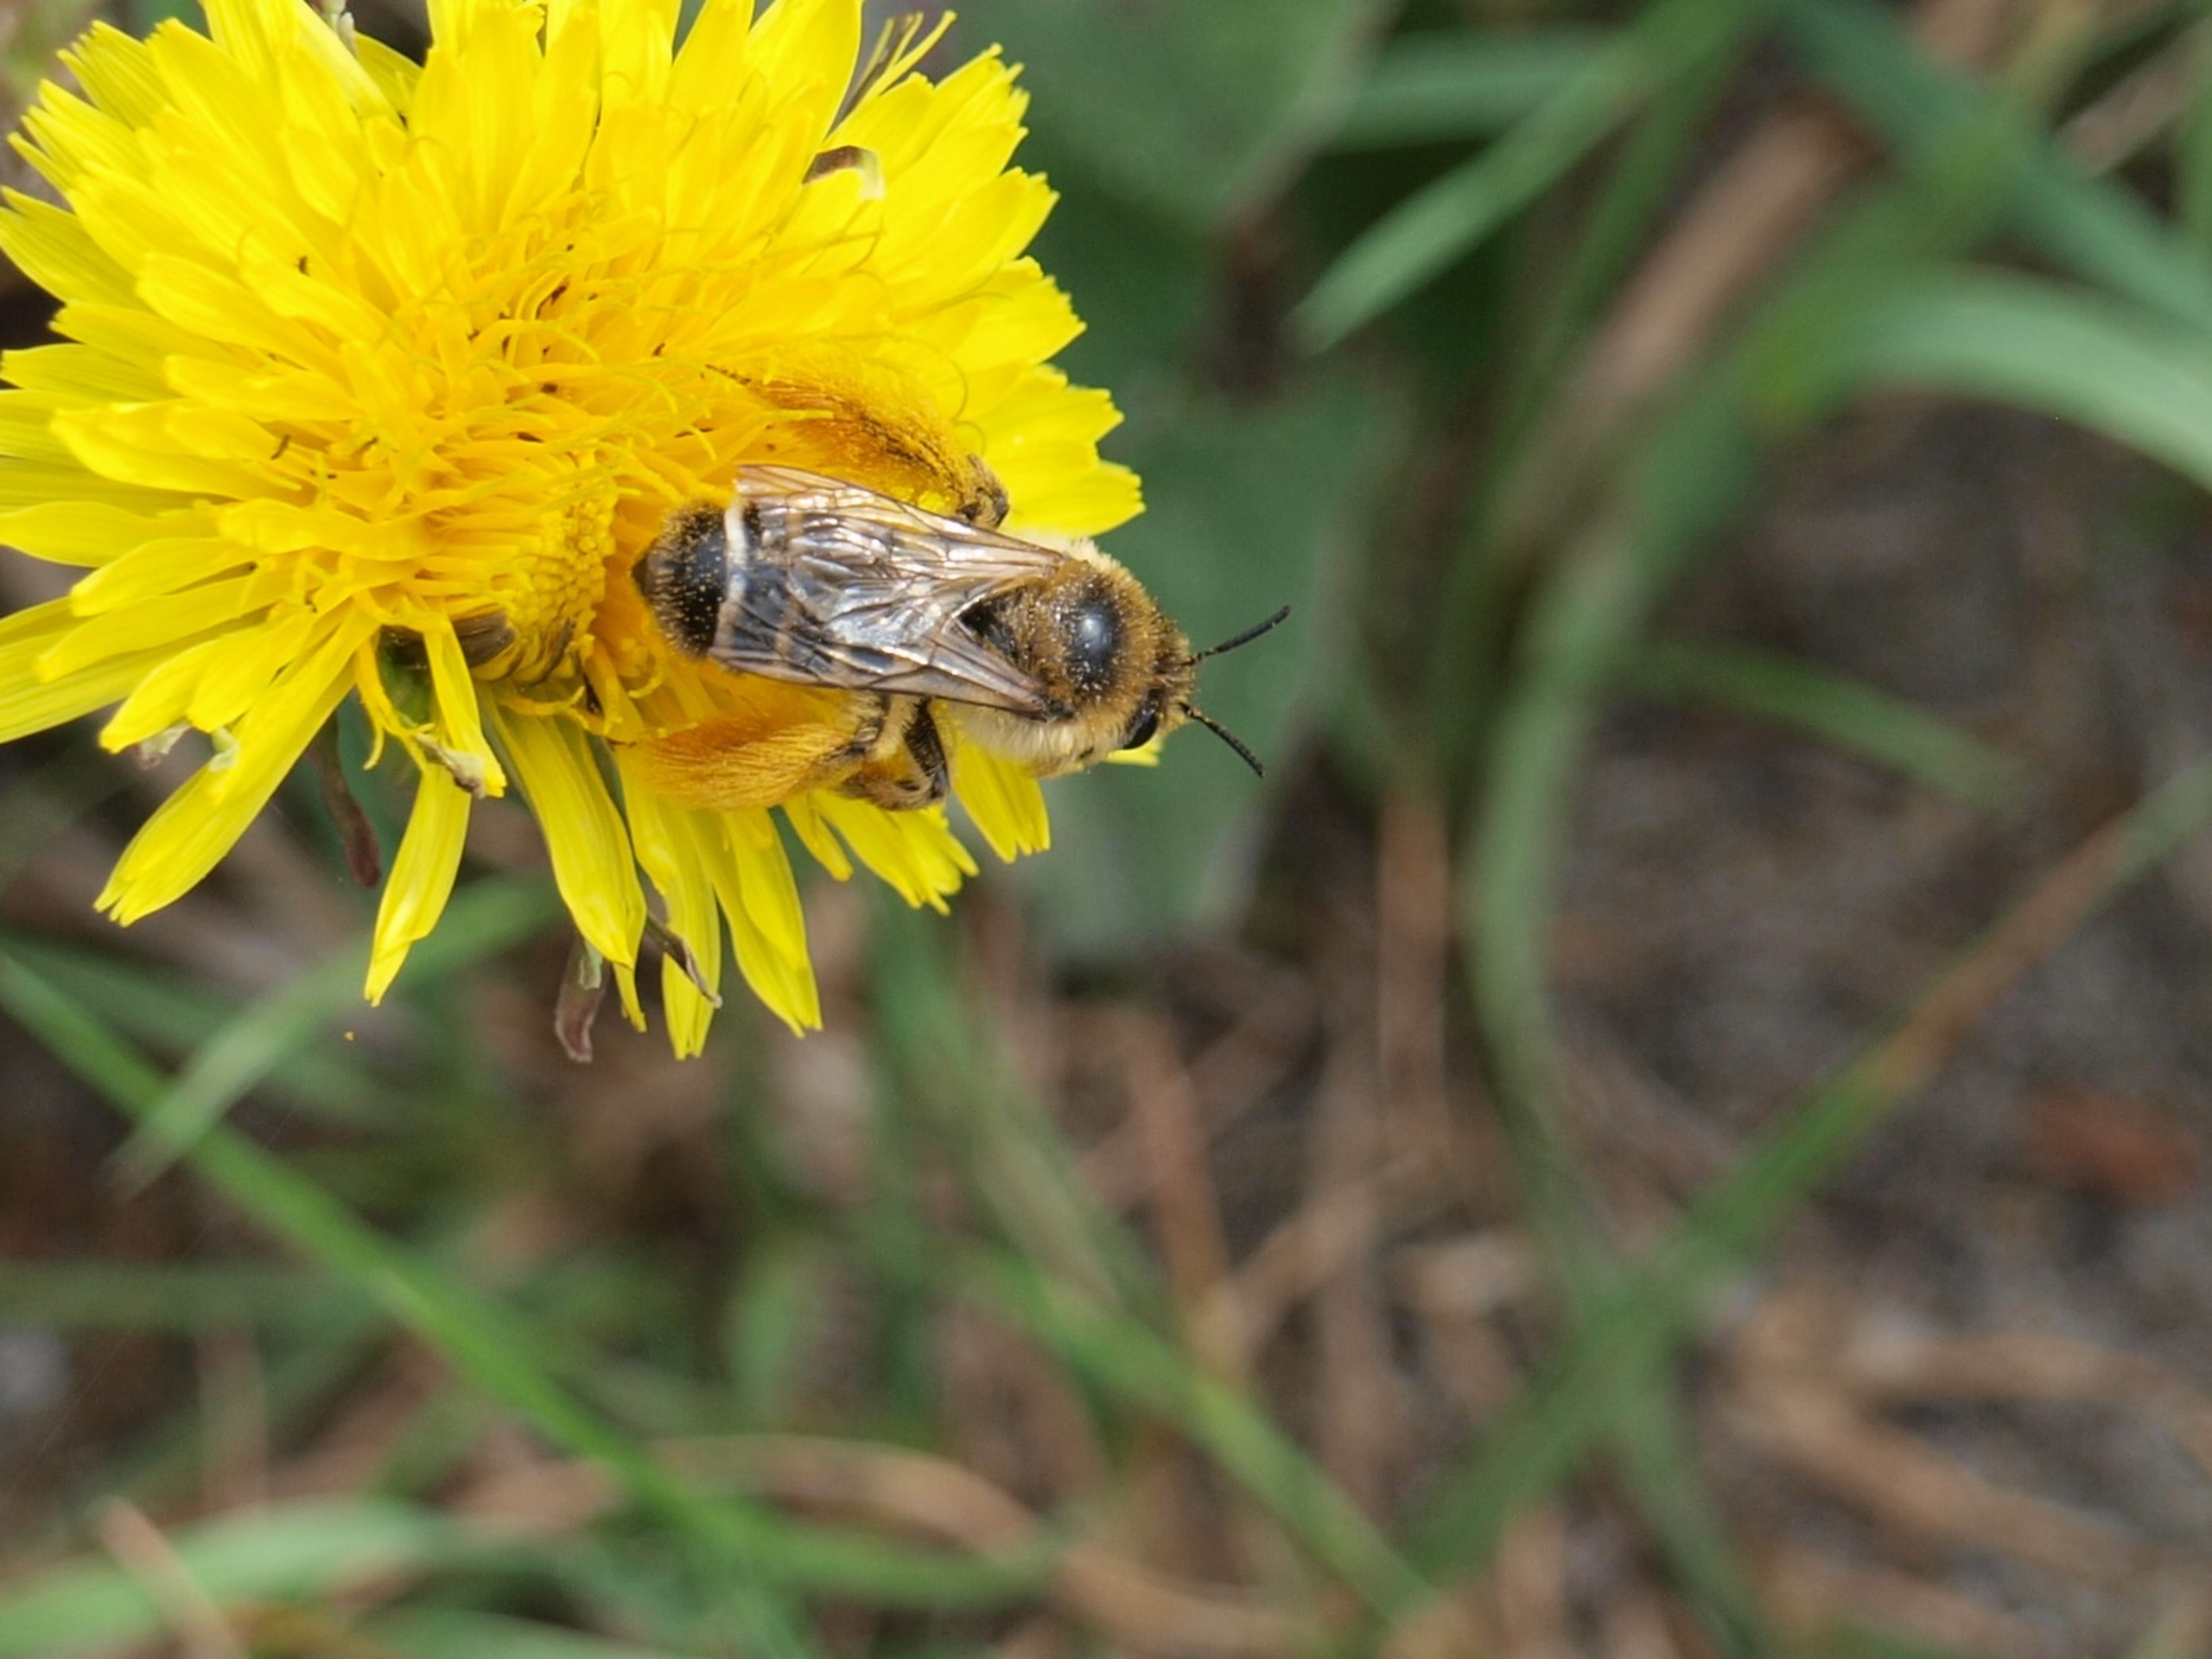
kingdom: Animalia
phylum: Arthropoda
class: Insecta
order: Hymenoptera
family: Melittidae
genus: Dasypoda
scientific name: Dasypoda hirtipes
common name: Pragtbuksebi
